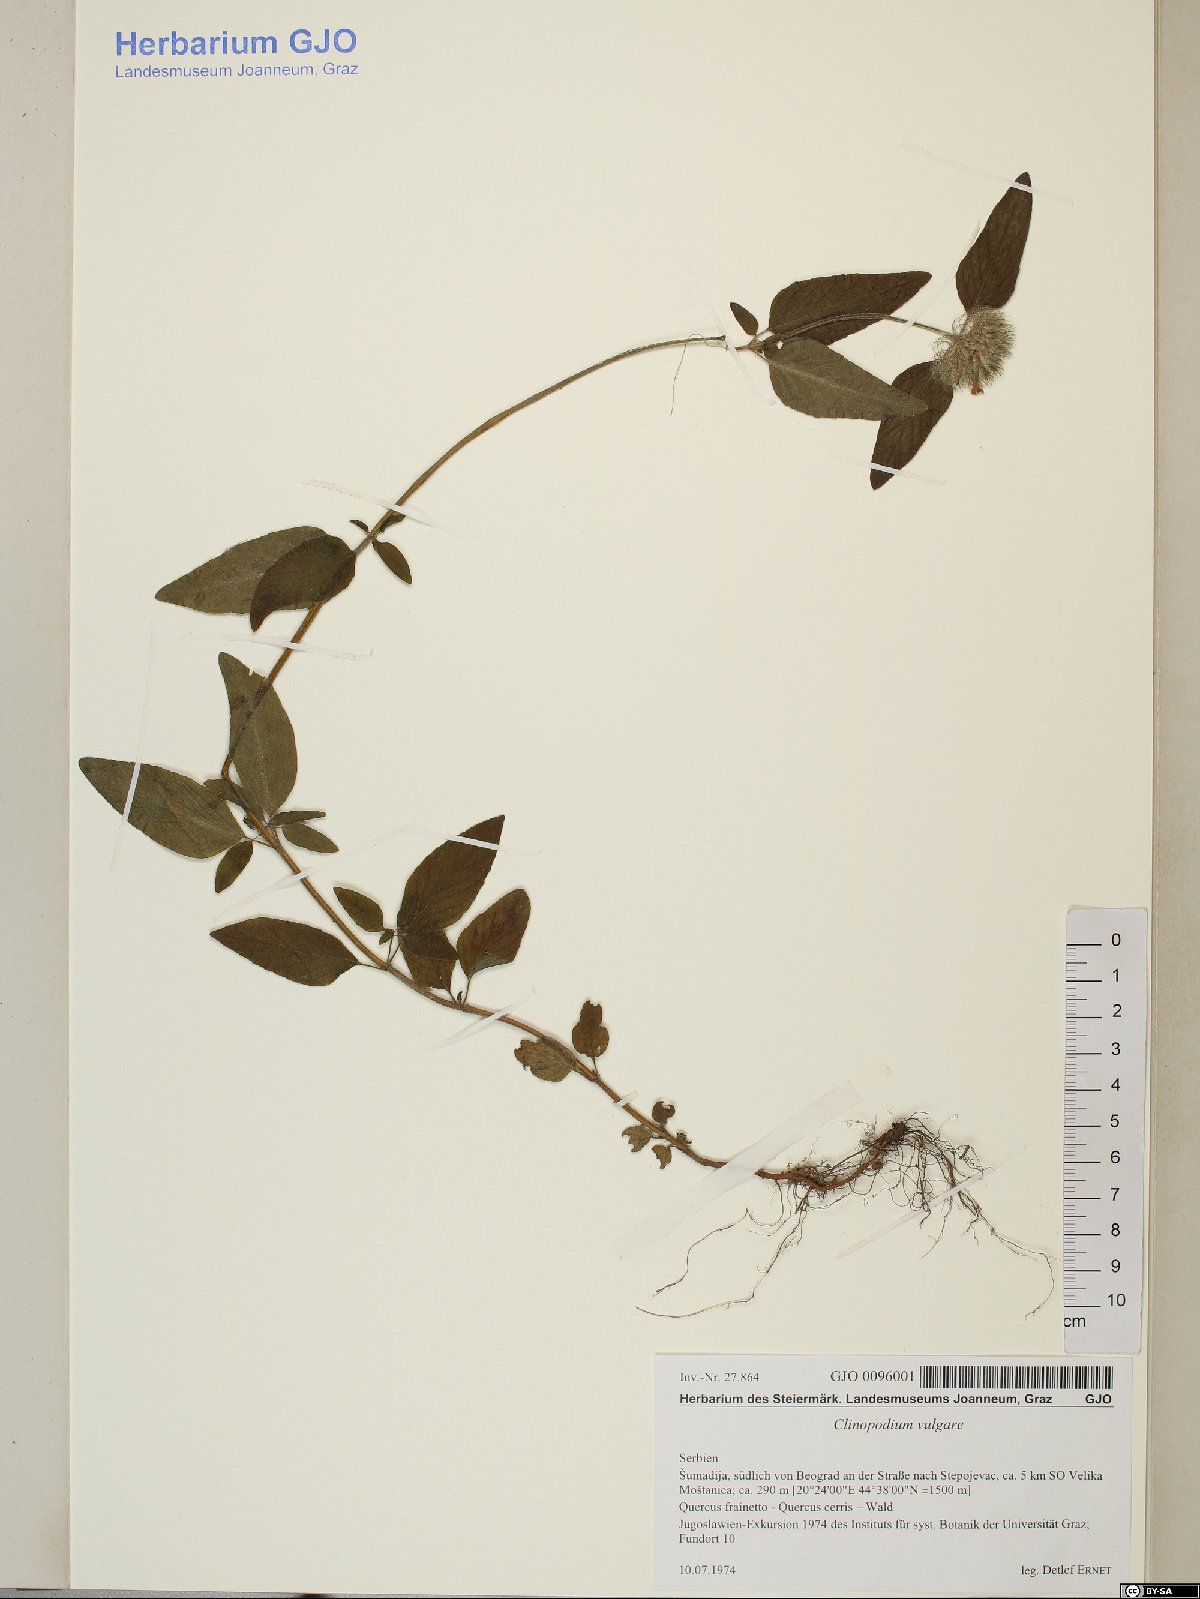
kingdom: Plantae
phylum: Tracheophyta
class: Magnoliopsida
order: Lamiales
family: Lamiaceae
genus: Clinopodium
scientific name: Clinopodium vulgare
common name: Wild basil
